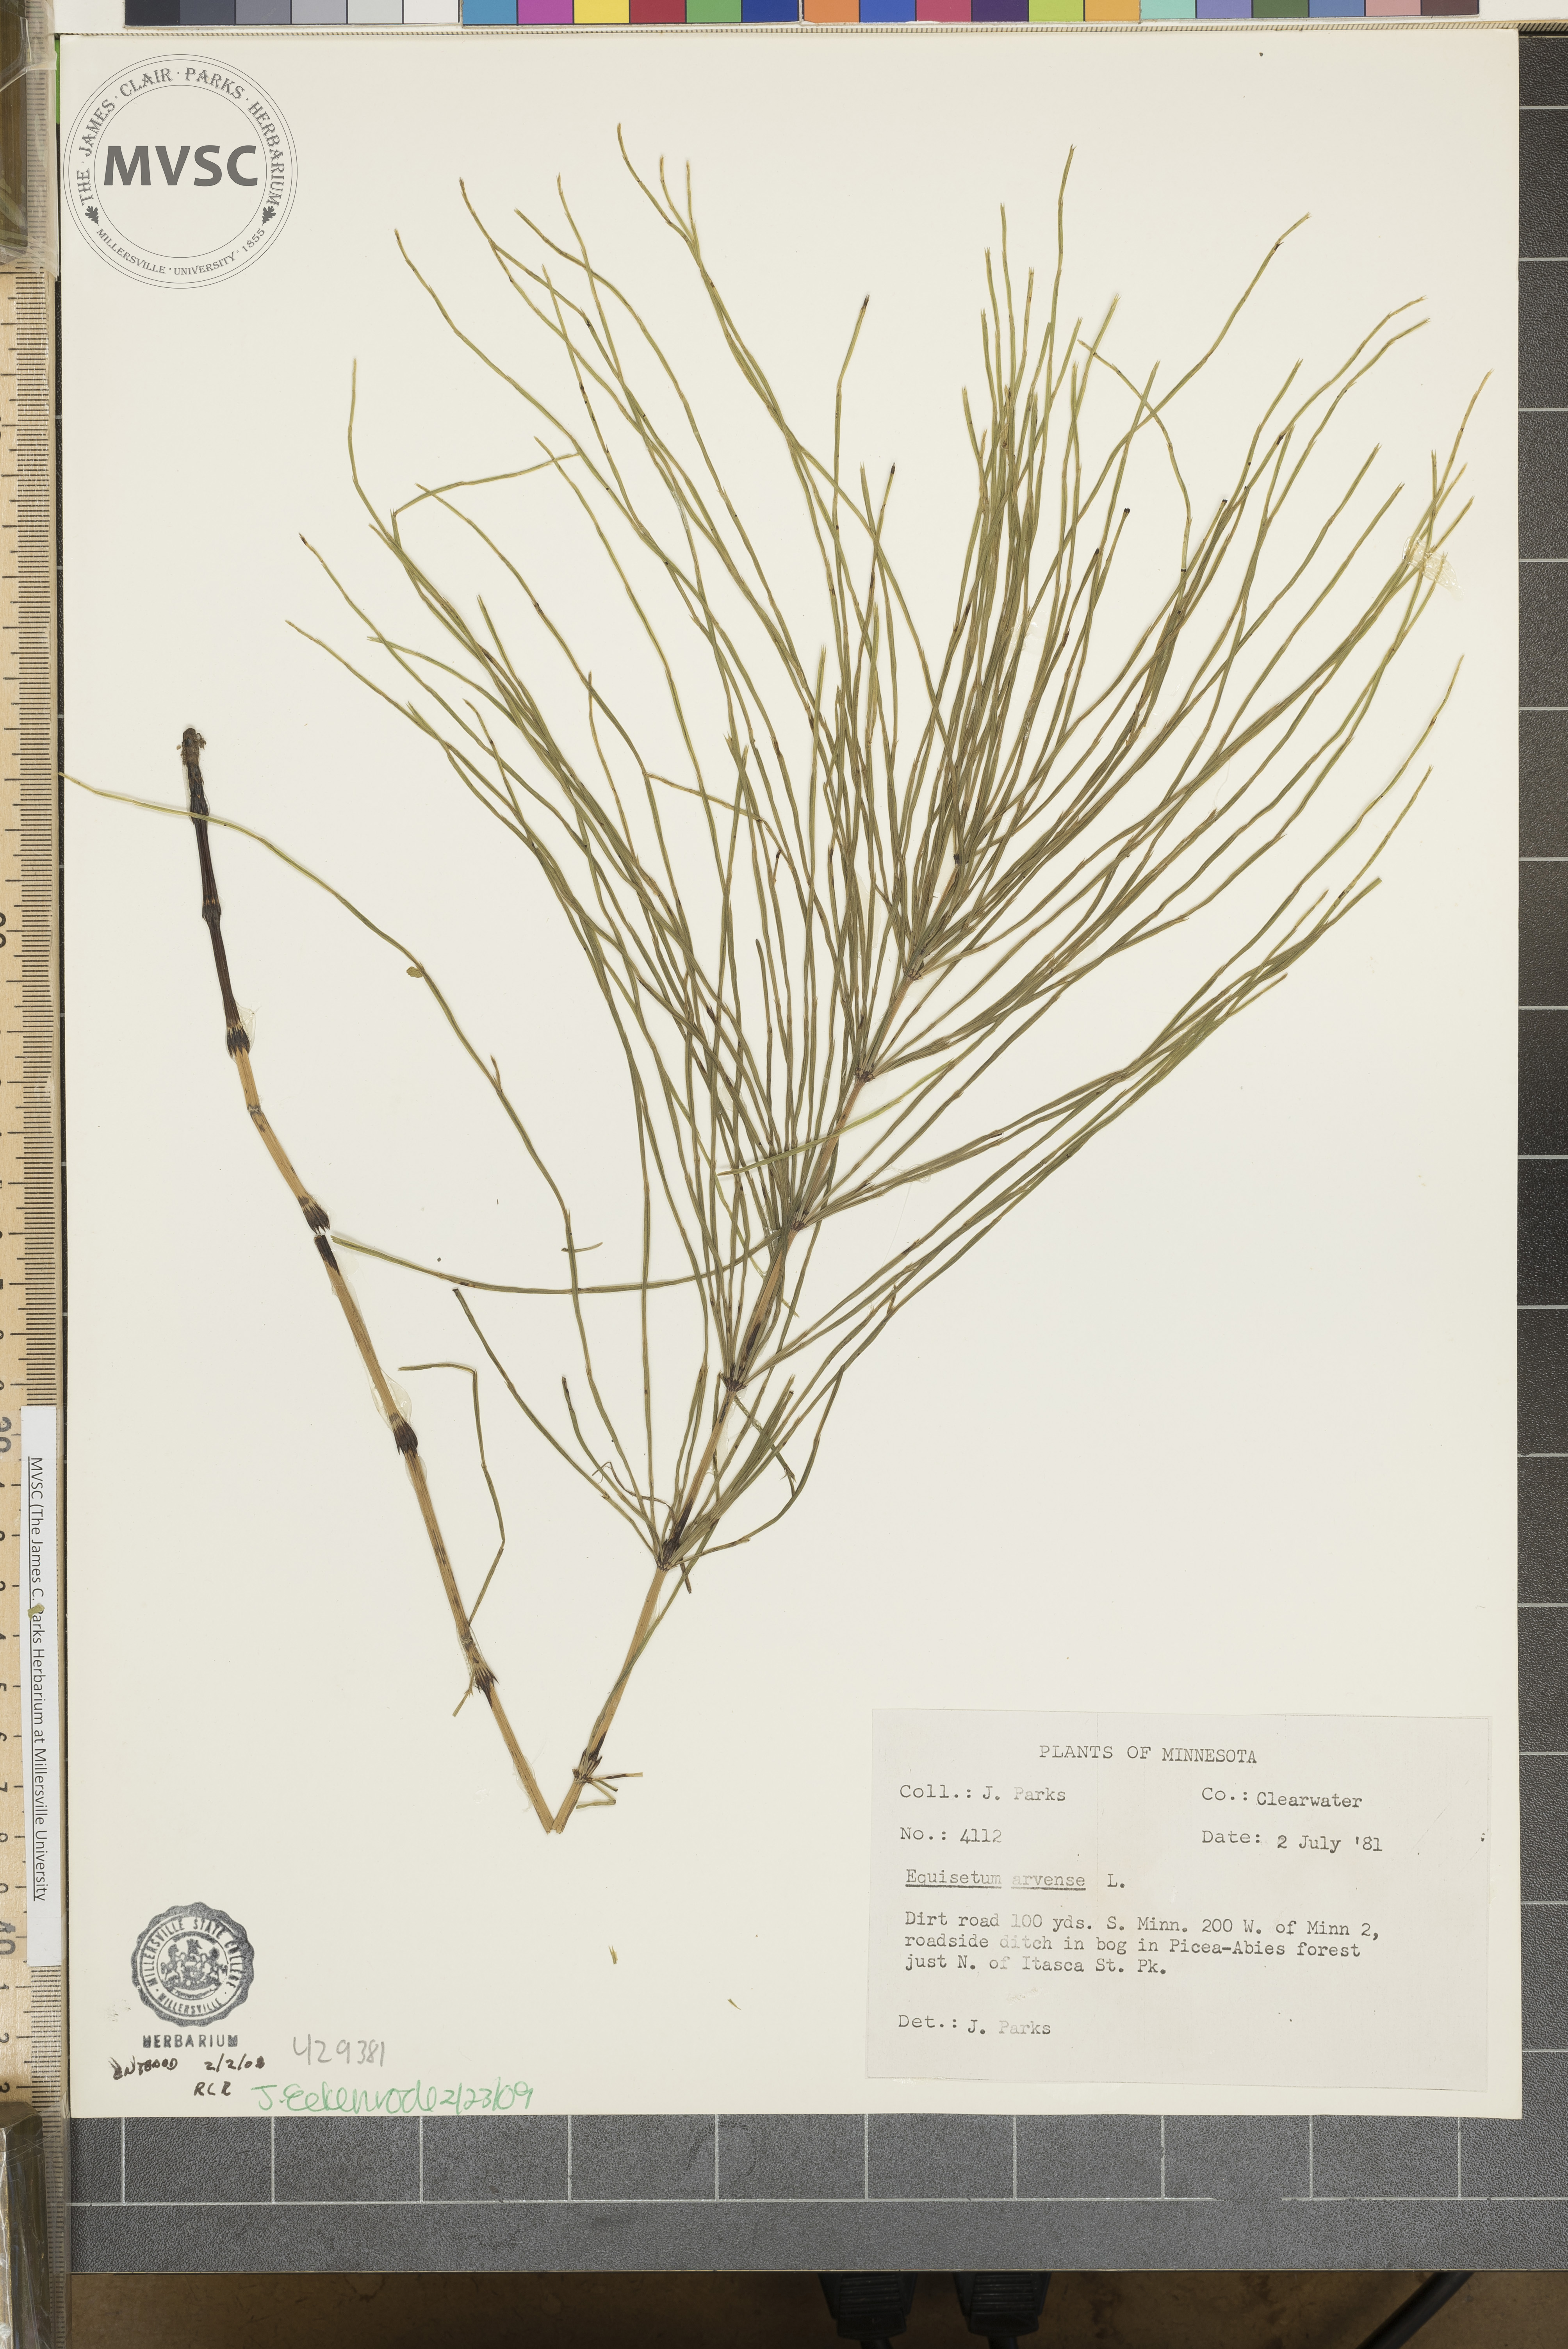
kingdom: Plantae
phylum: Tracheophyta
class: Polypodiopsida
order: Equisetales
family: Equisetaceae
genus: Equisetum
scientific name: Equisetum arvense
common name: Field horsetail
